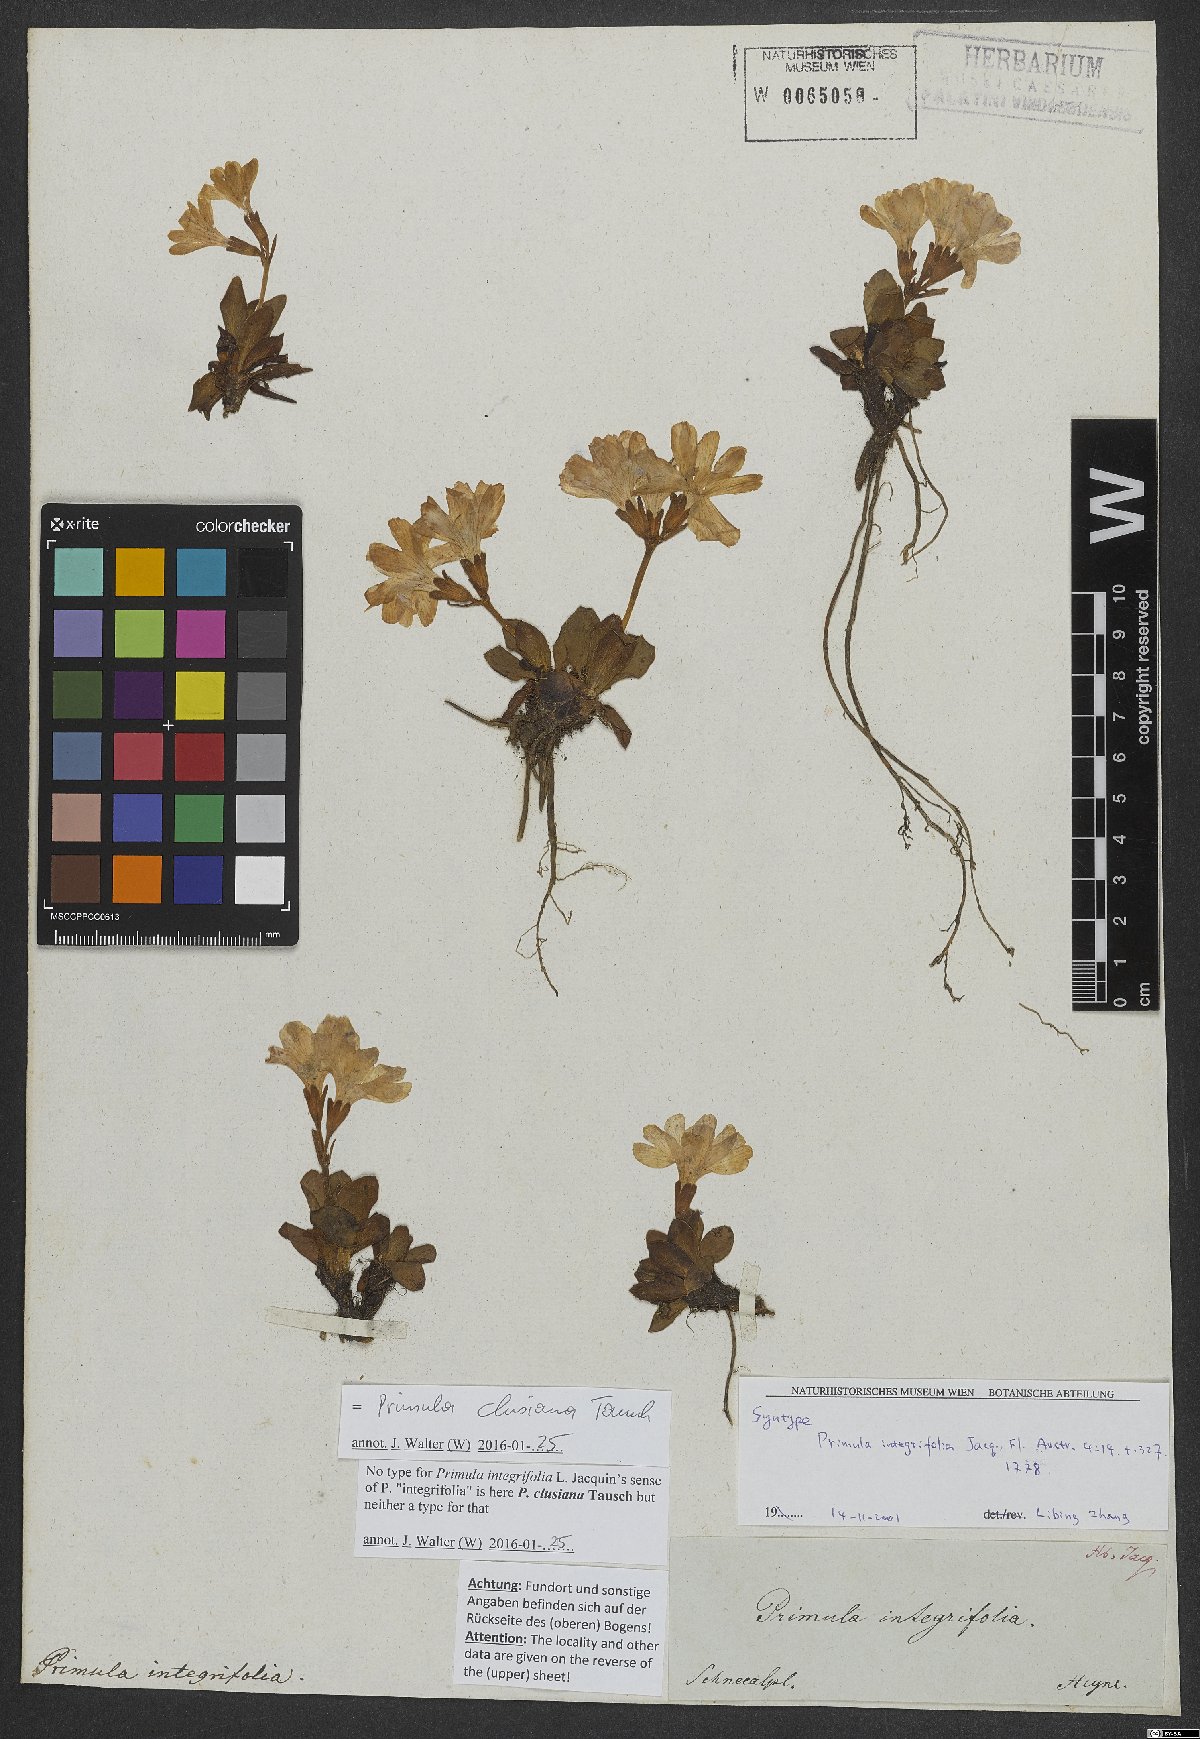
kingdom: Plantae
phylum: Tracheophyta
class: Magnoliopsida
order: Ericales
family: Primulaceae
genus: Primula
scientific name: Primula clusiana
